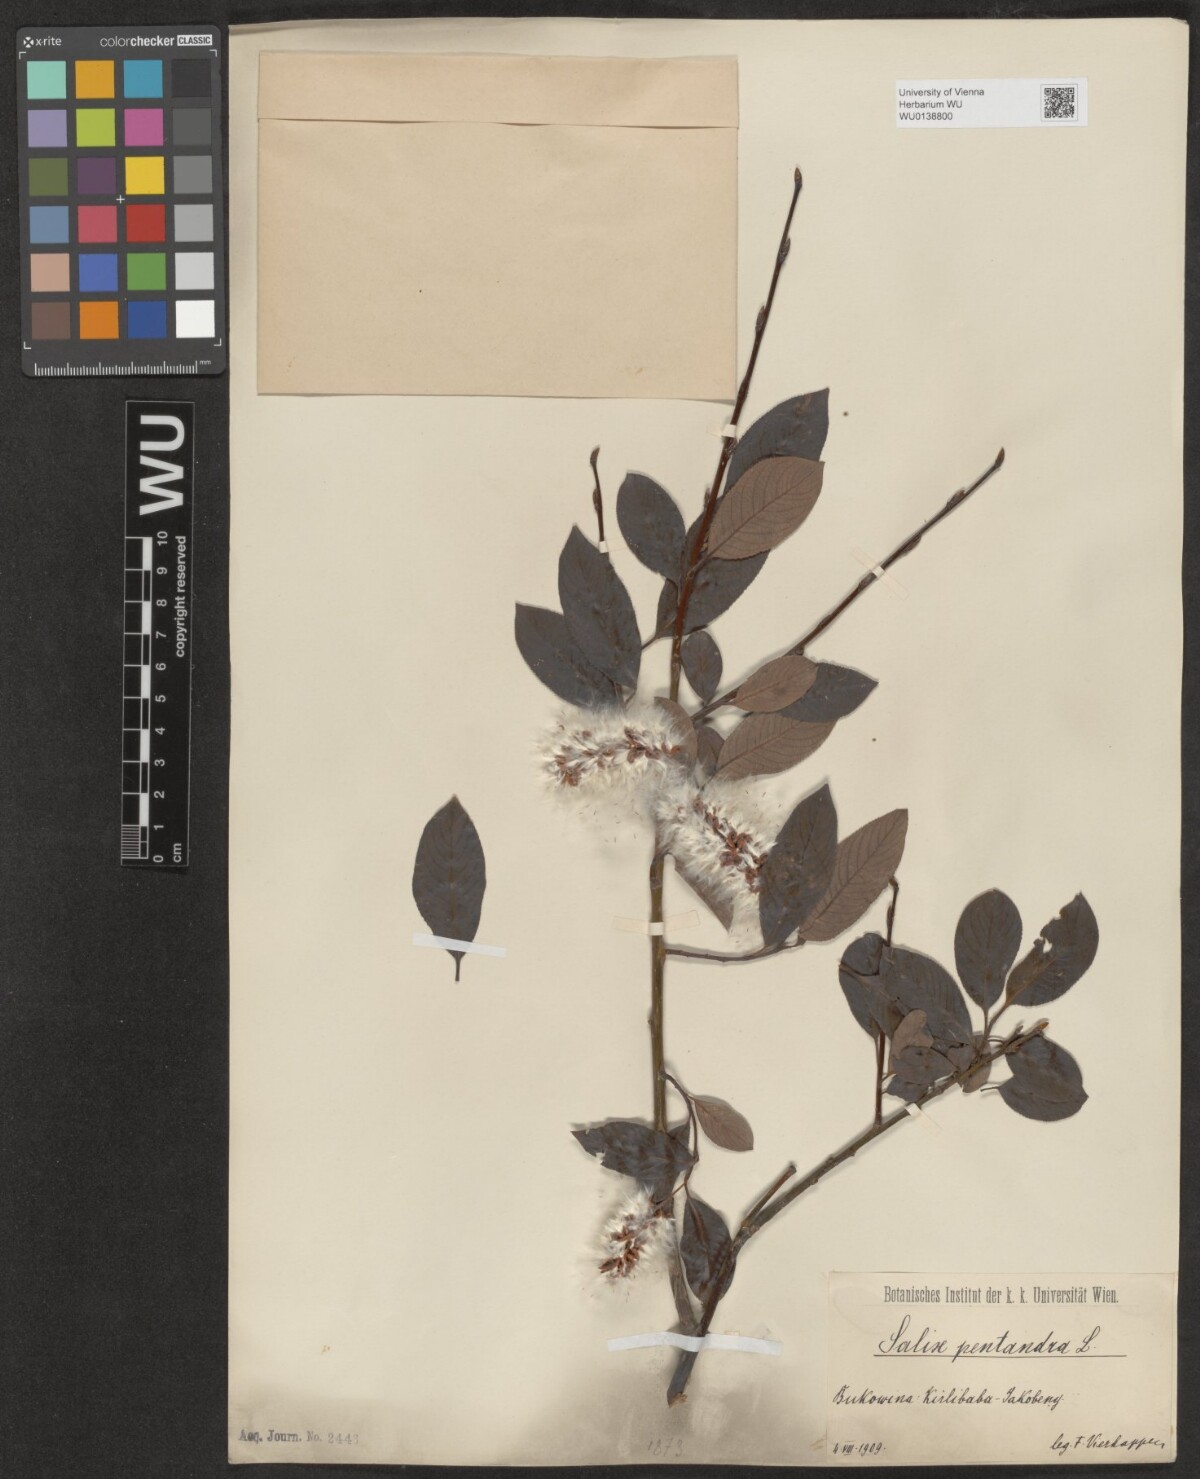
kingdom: Plantae
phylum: Tracheophyta
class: Magnoliopsida
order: Malpighiales
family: Salicaceae
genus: Salix
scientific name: Salix pentandra
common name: Bay willow
